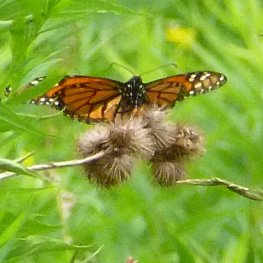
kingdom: Animalia
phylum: Arthropoda
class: Insecta
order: Lepidoptera
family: Nymphalidae
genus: Danaus
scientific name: Danaus plexippus
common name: Monarch
